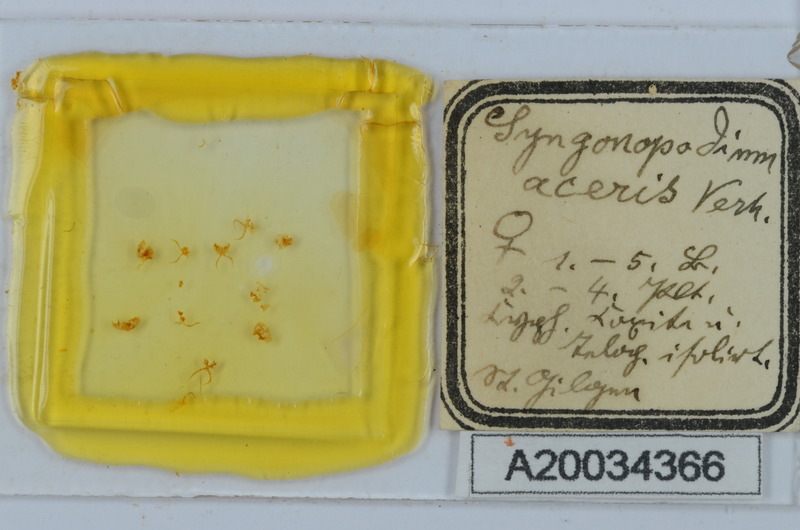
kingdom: Animalia
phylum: Arthropoda
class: Diplopoda
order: Chordeumatida
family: Attemsiidae
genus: Syngonopodium
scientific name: Syngonopodium aceris
